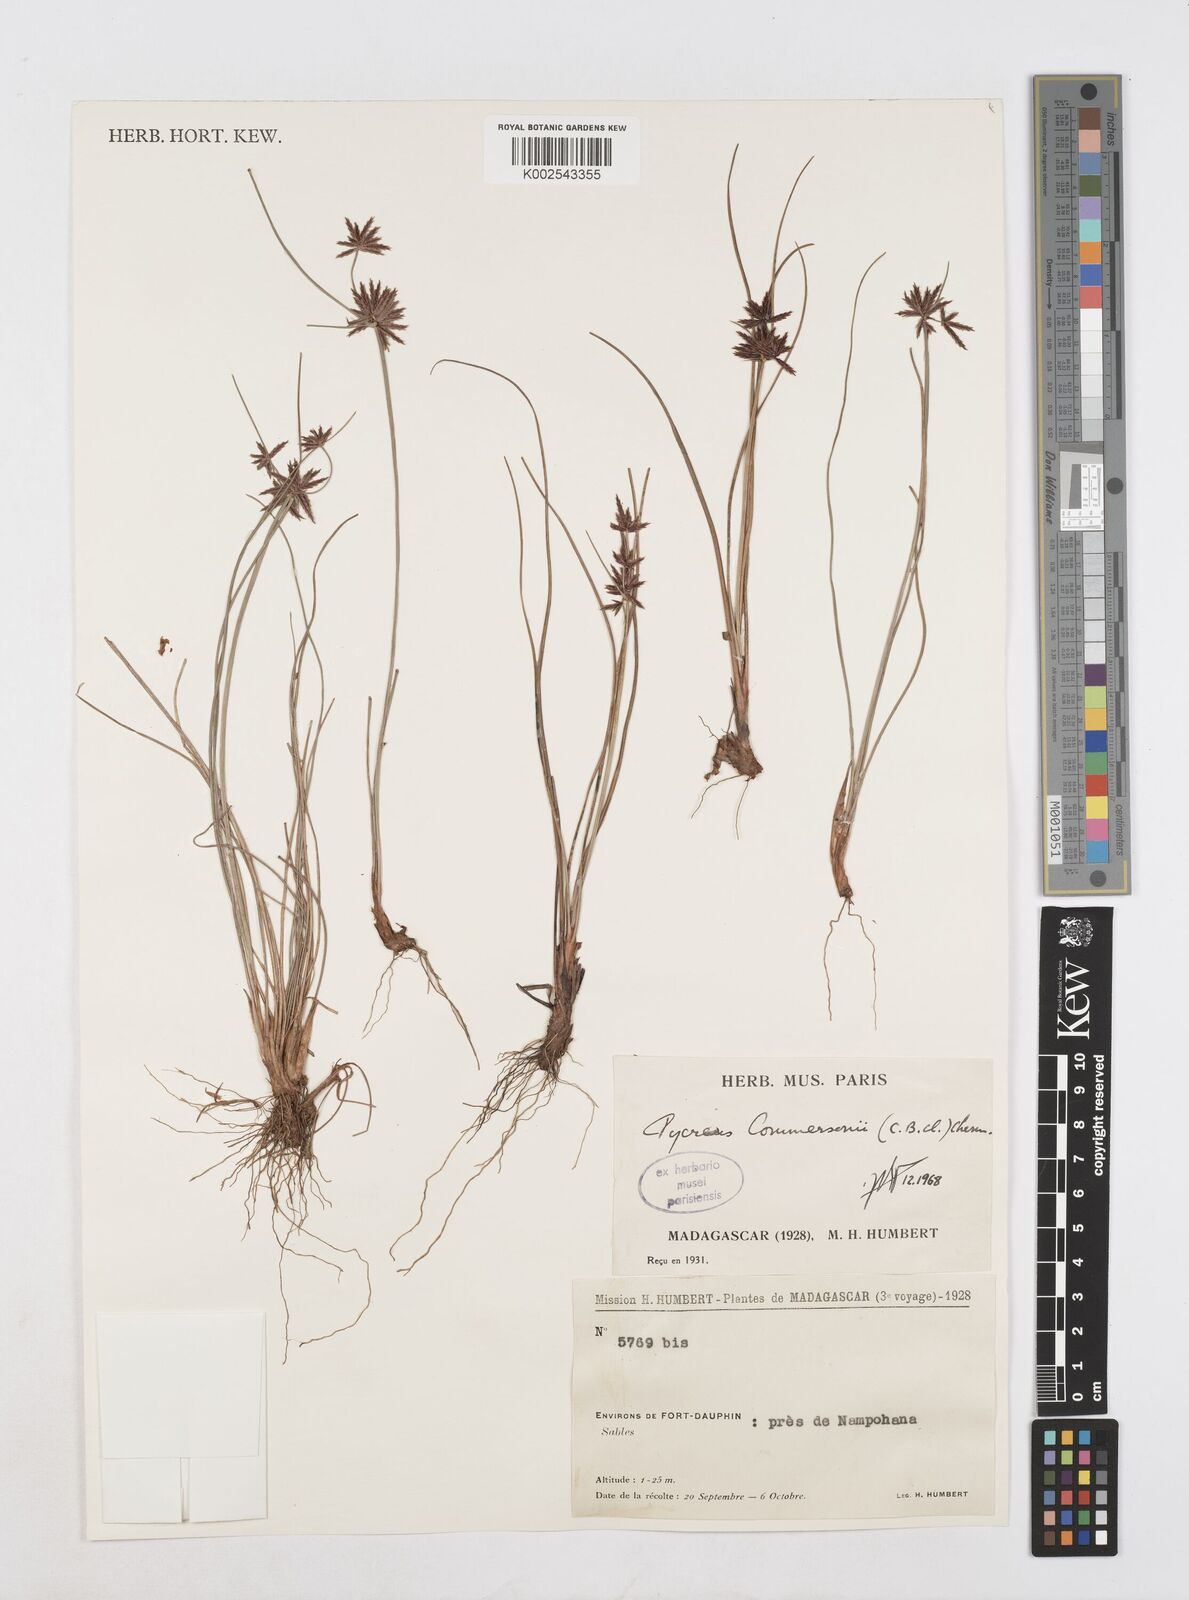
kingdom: Plantae
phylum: Tracheophyta
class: Liliopsida
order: Poales
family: Cyperaceae
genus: Cyperus
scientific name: Cyperus rhizomatosus
